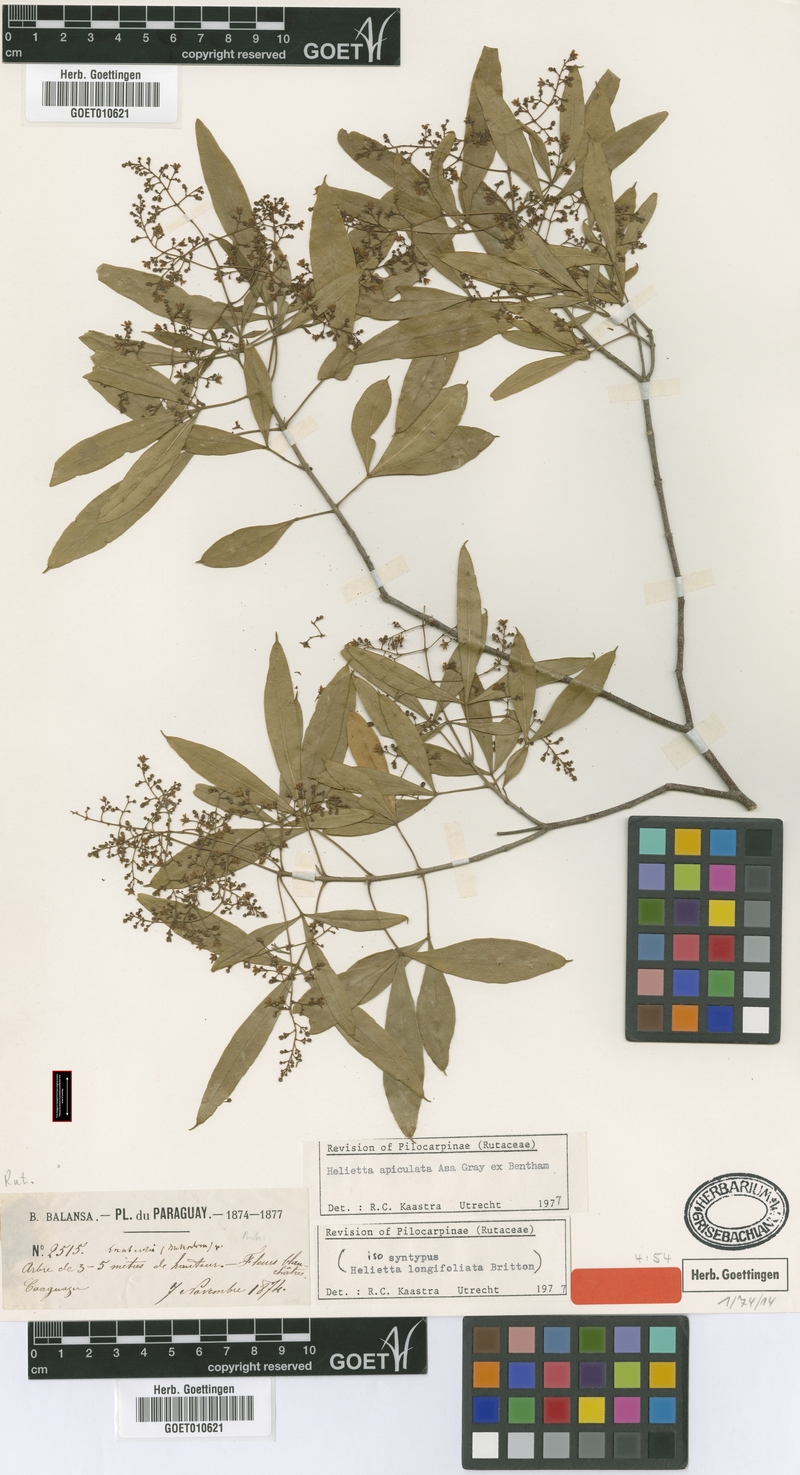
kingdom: Plantae
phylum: Tracheophyta
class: Magnoliopsida
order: Sapindales
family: Rutaceae
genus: Helietta
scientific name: Helietta apiculata
